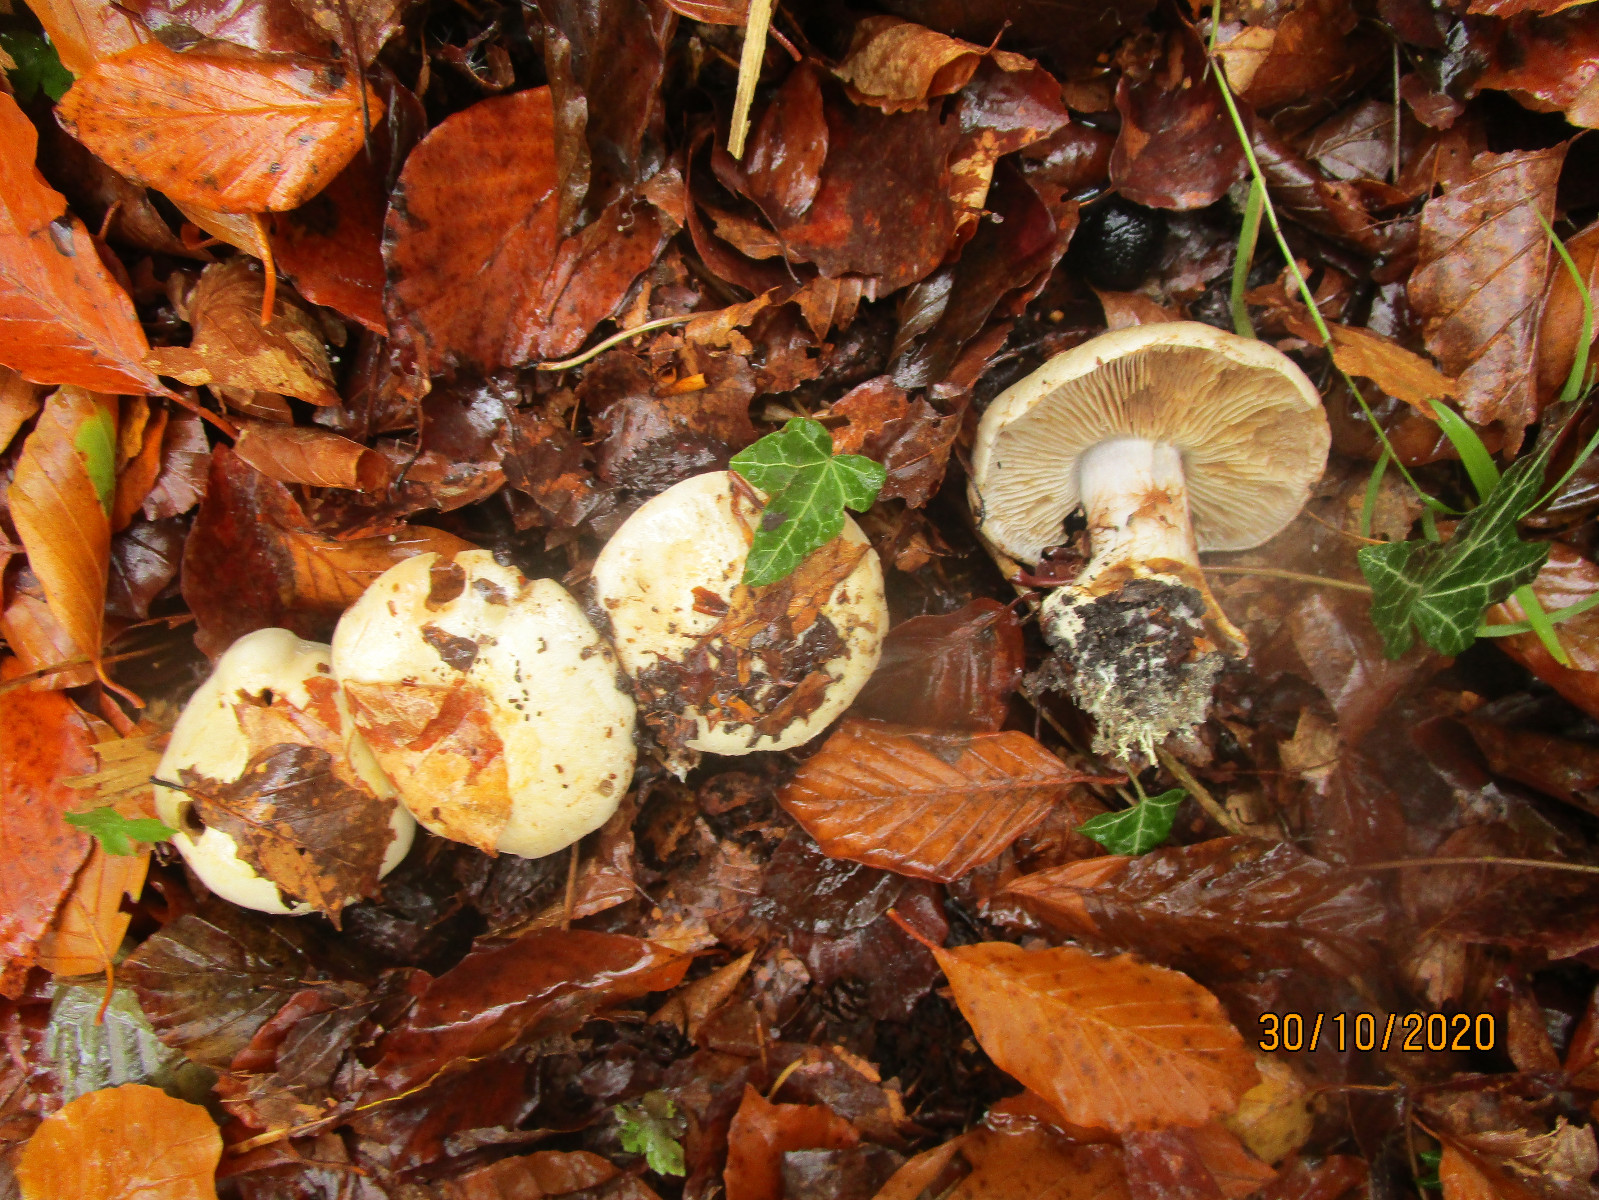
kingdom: Fungi
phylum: Basidiomycota
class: Agaricomycetes
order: Agaricales
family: Cortinariaceae
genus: Cortinarius
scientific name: Cortinarius foetens
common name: stribet slørhat
